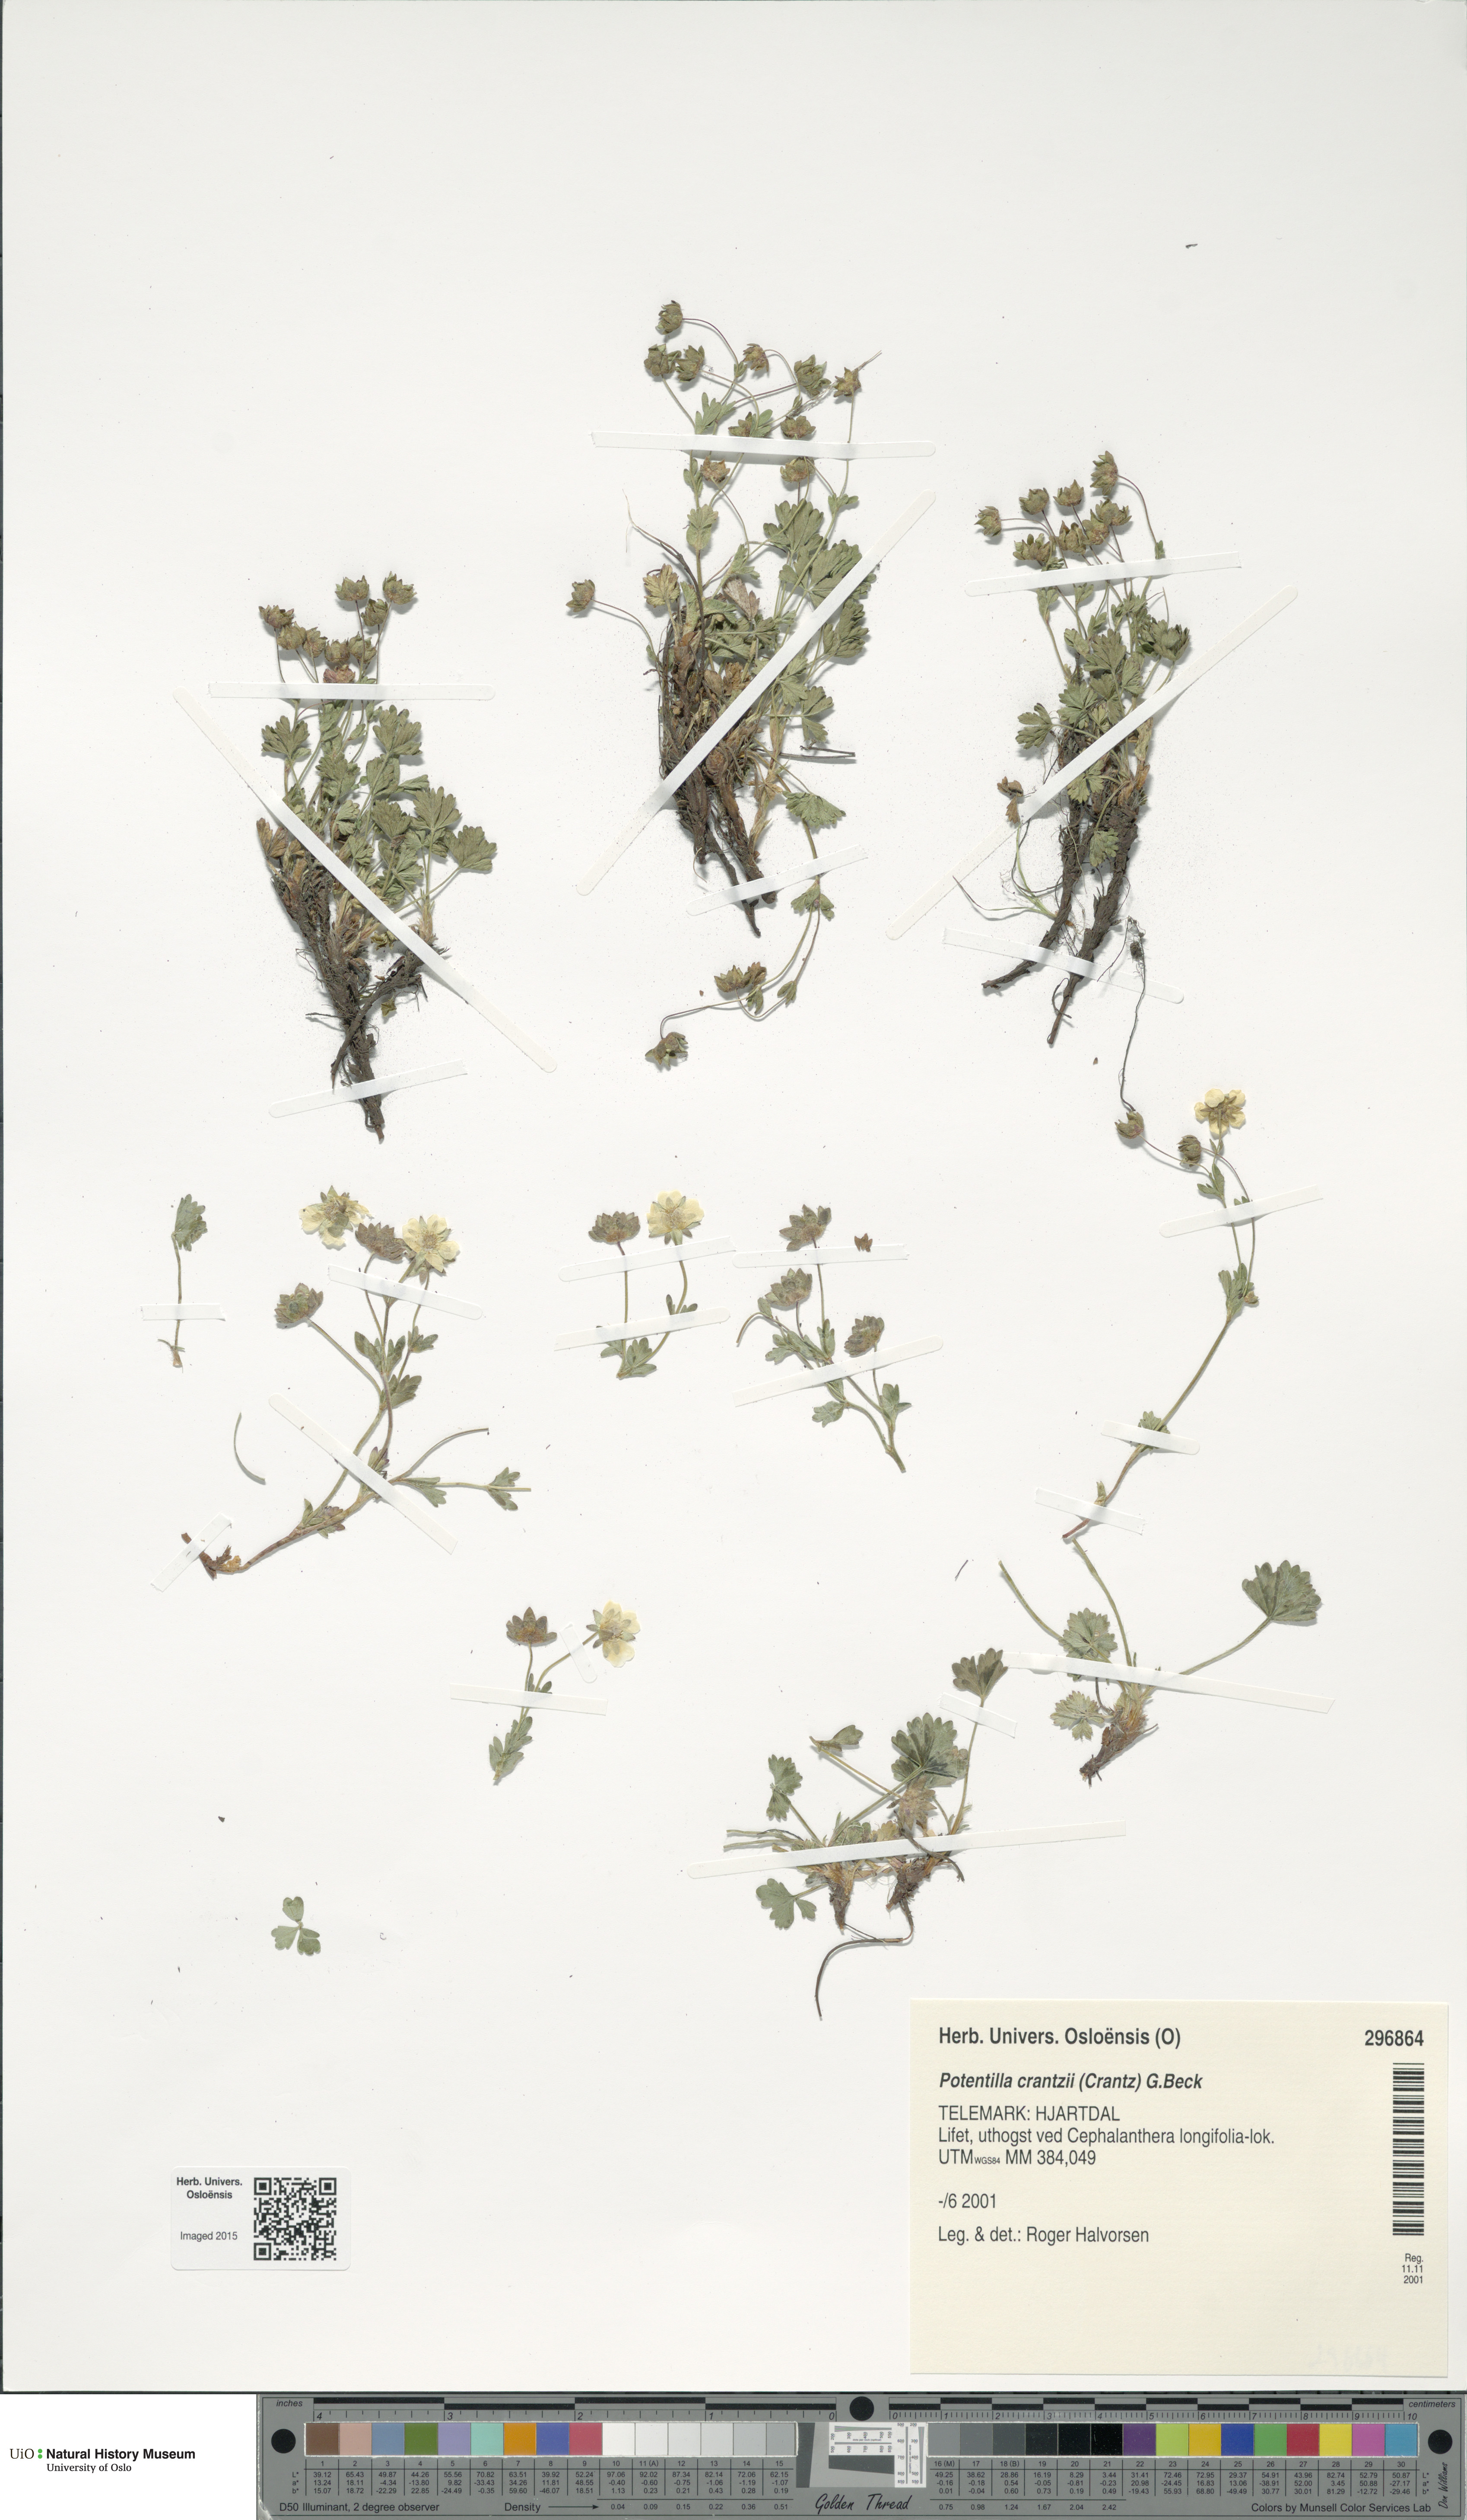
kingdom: Plantae
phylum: Tracheophyta
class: Magnoliopsida
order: Rosales
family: Rosaceae
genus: Potentilla
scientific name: Potentilla crantzii
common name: Alpine cinquefoil
